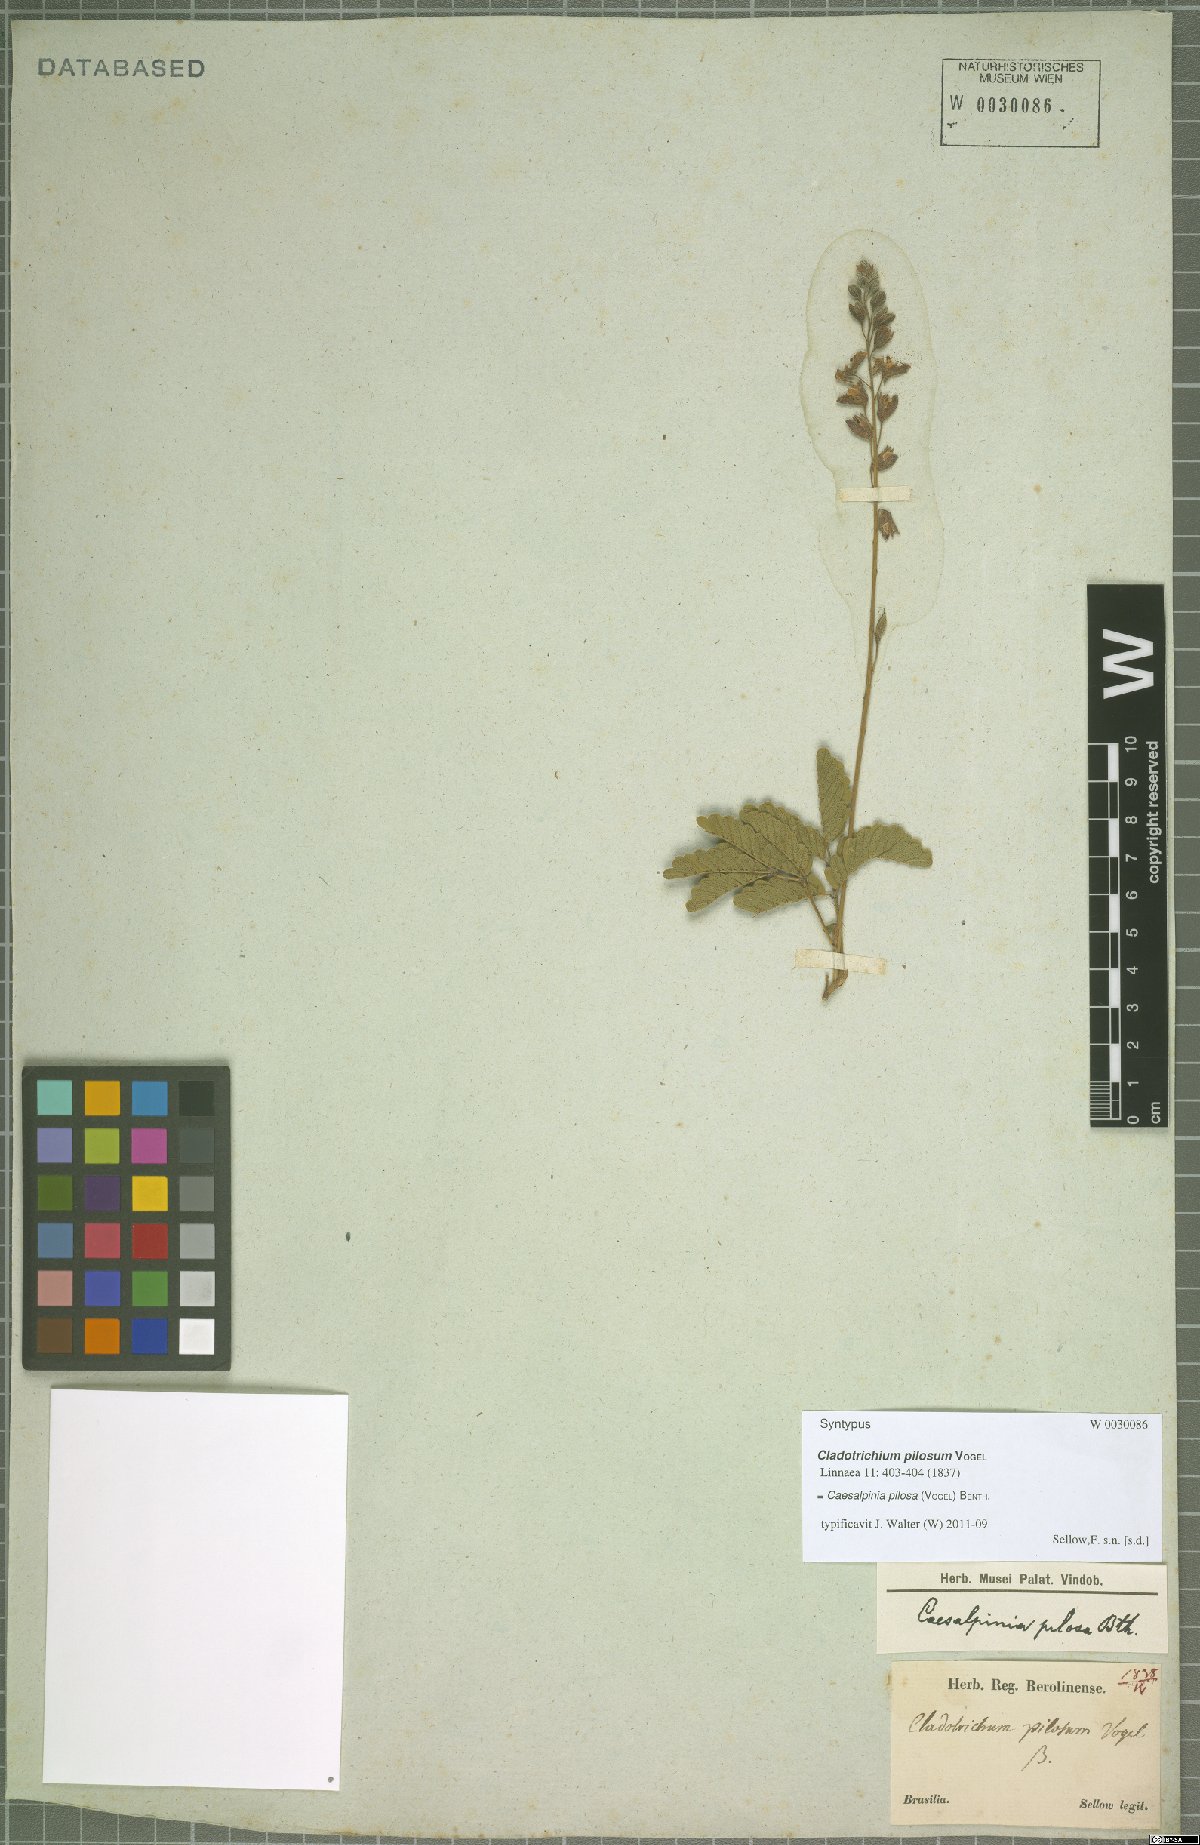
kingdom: Plantae
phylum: Tracheophyta
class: Magnoliopsida
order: Fabales
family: Fabaceae
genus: Pomaria
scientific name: Pomaria pilosa
